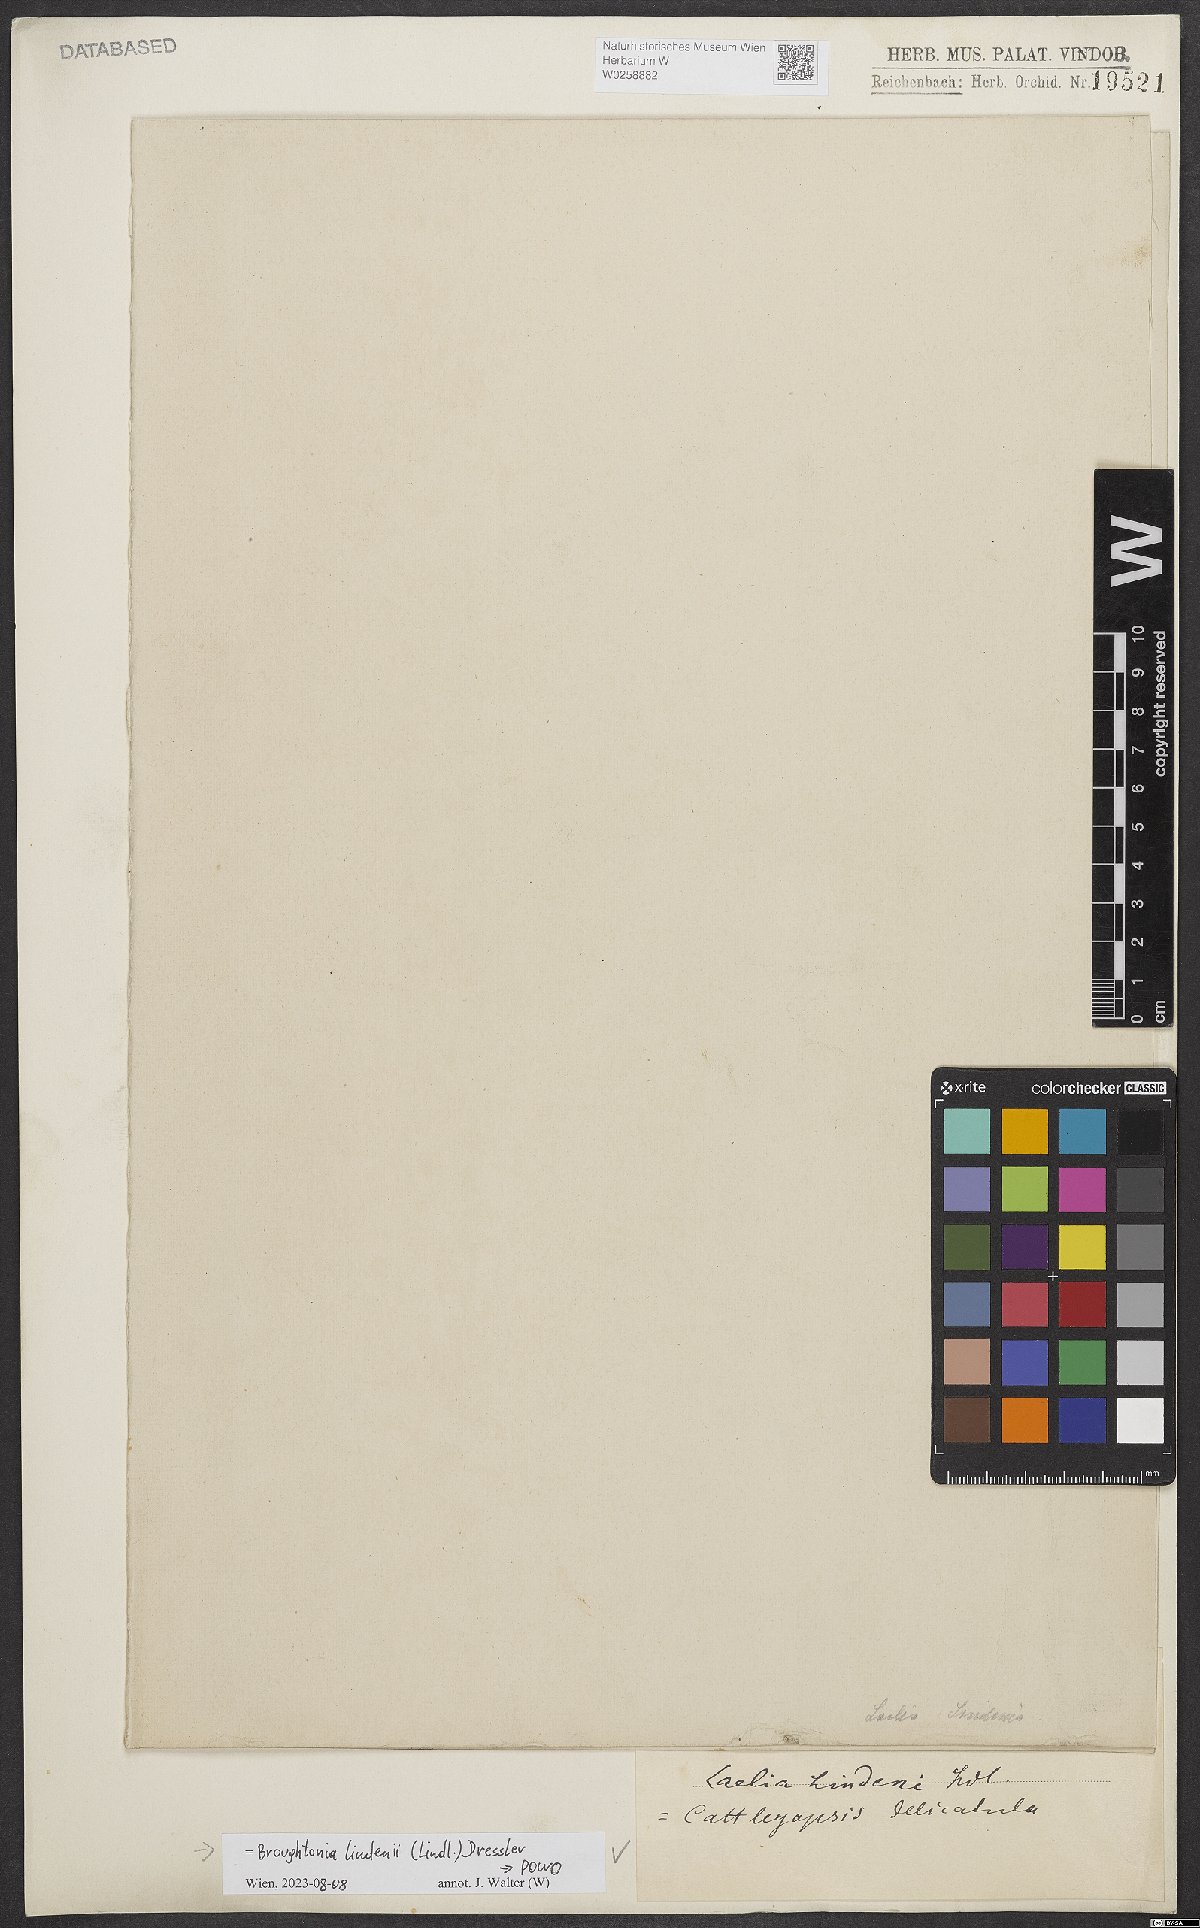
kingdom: Plantae
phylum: Tracheophyta
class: Liliopsida
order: Asparagales
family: Orchidaceae
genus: Broughtonia
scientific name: Broughtonia lindenii
